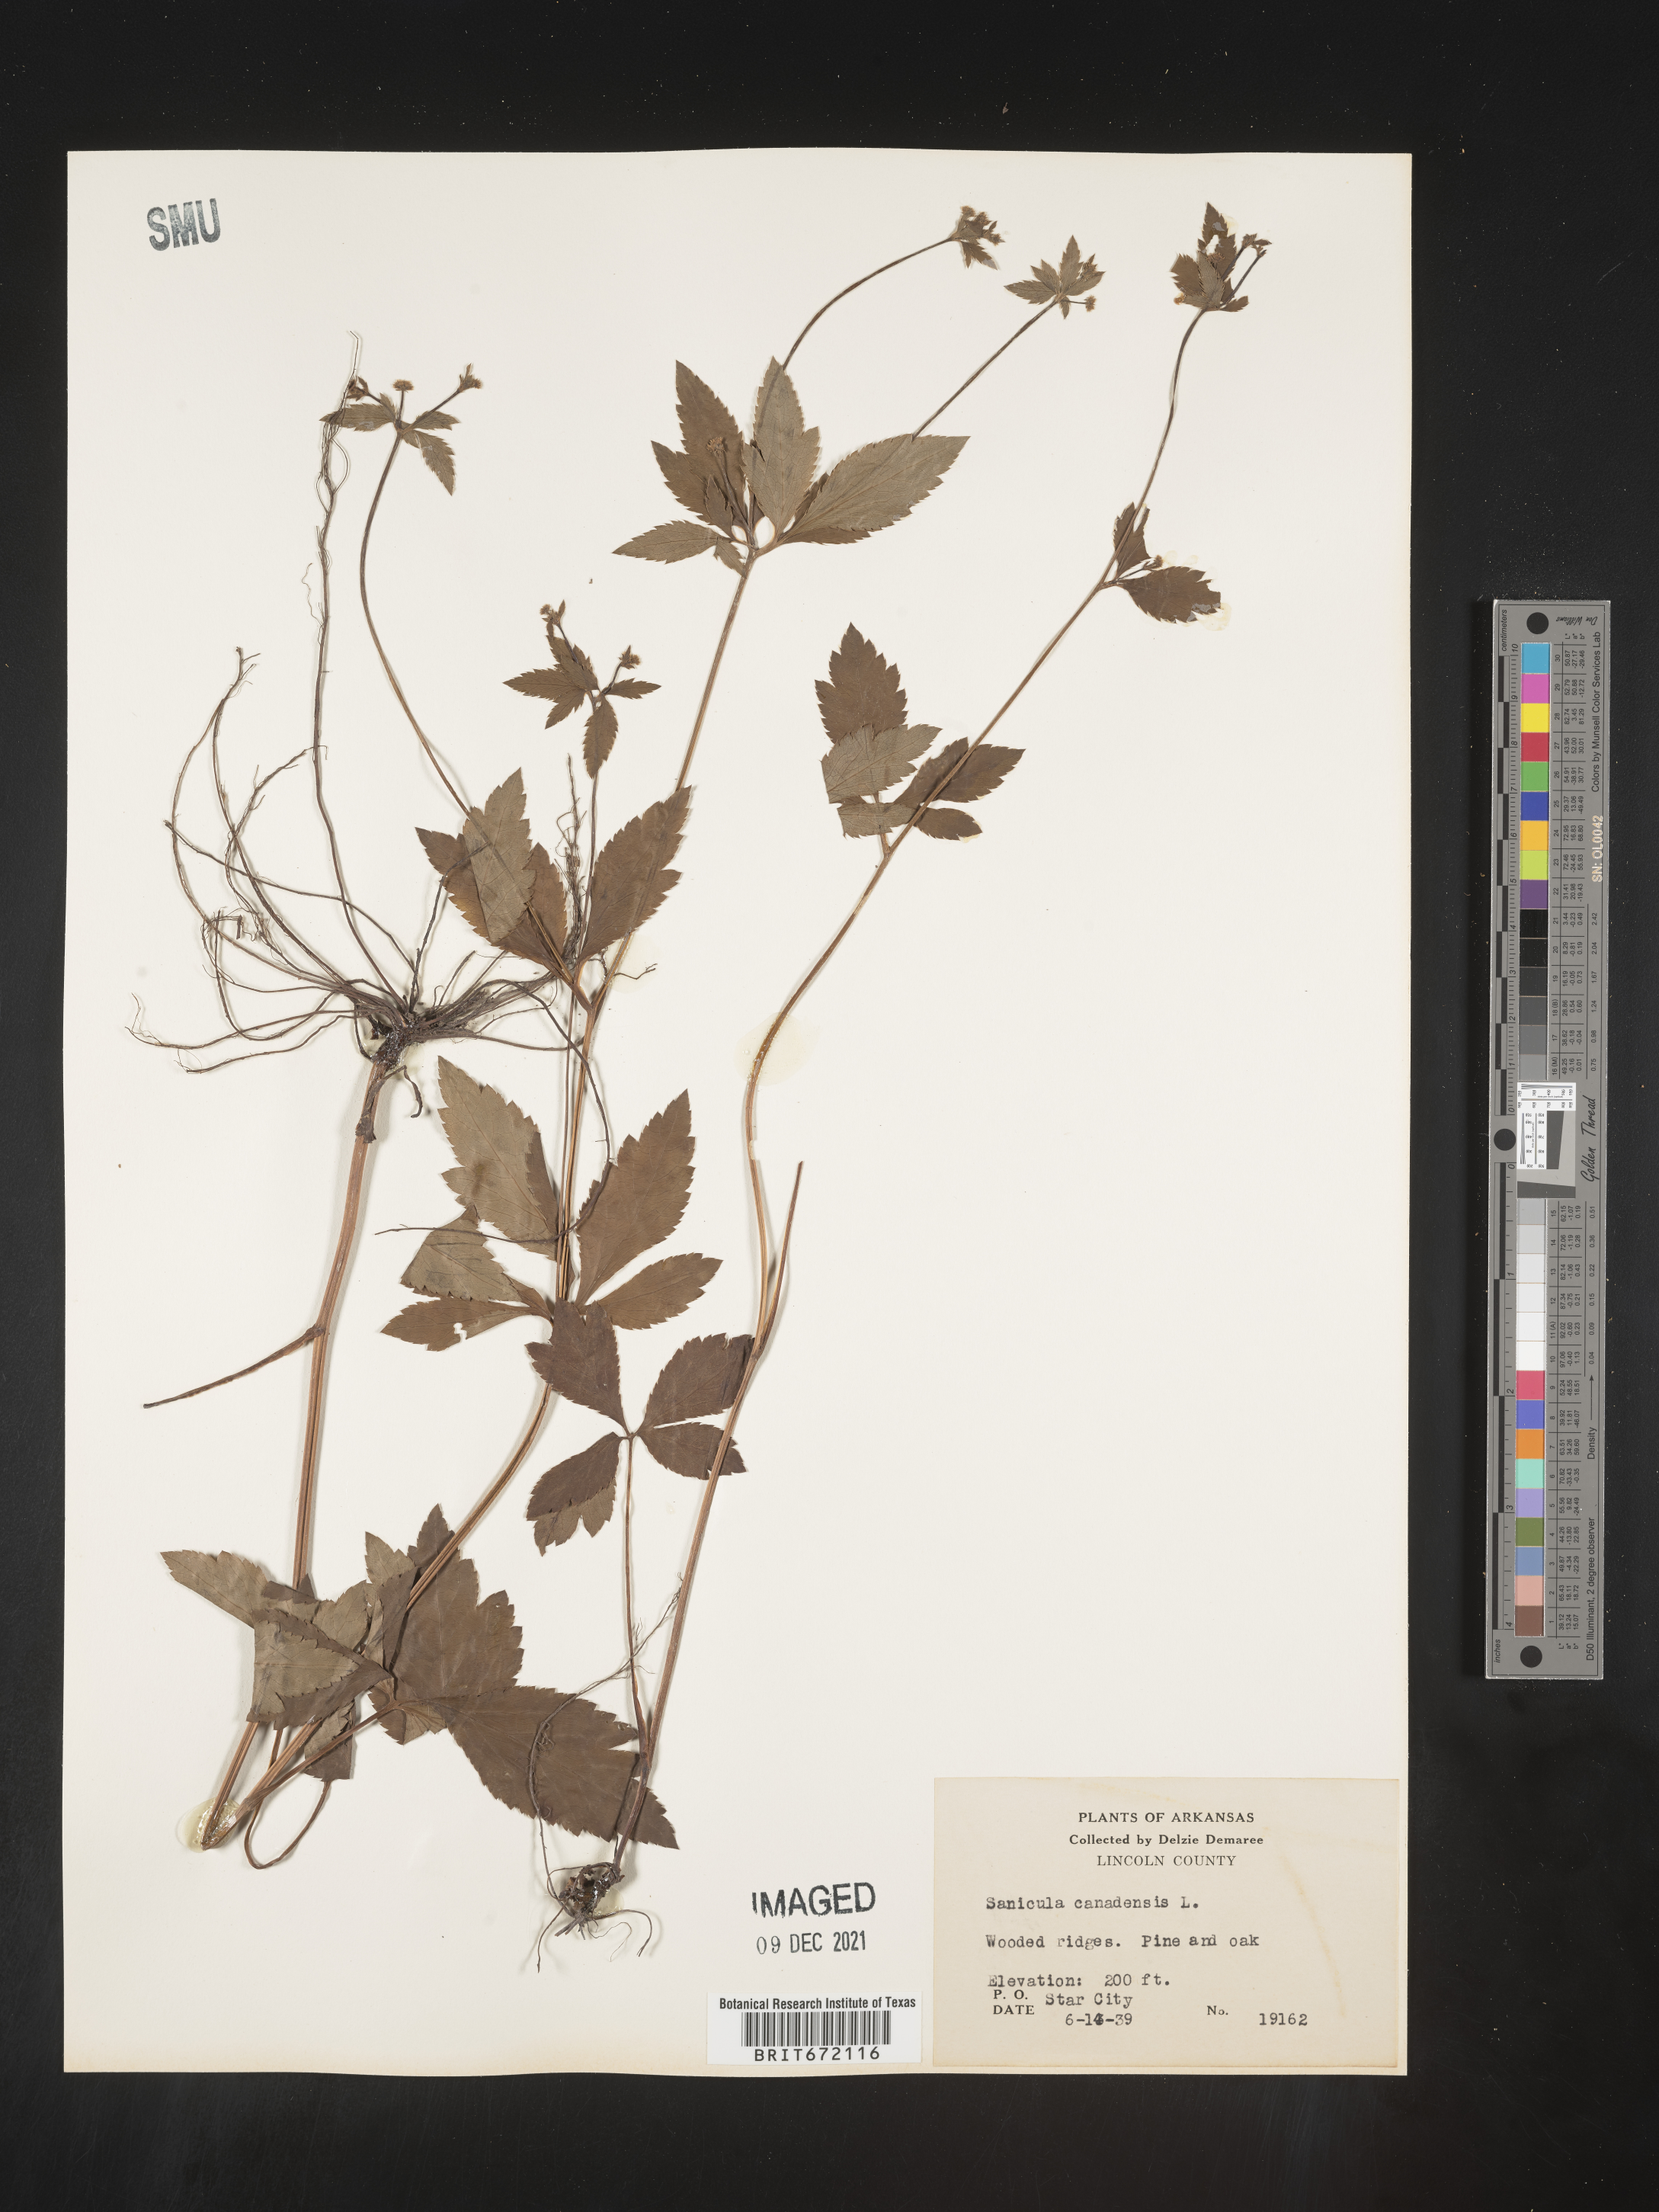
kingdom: Plantae
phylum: Tracheophyta
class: Magnoliopsida
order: Apiales
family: Apiaceae
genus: Sanicula
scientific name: Sanicula canadensis
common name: Canada sanicle
